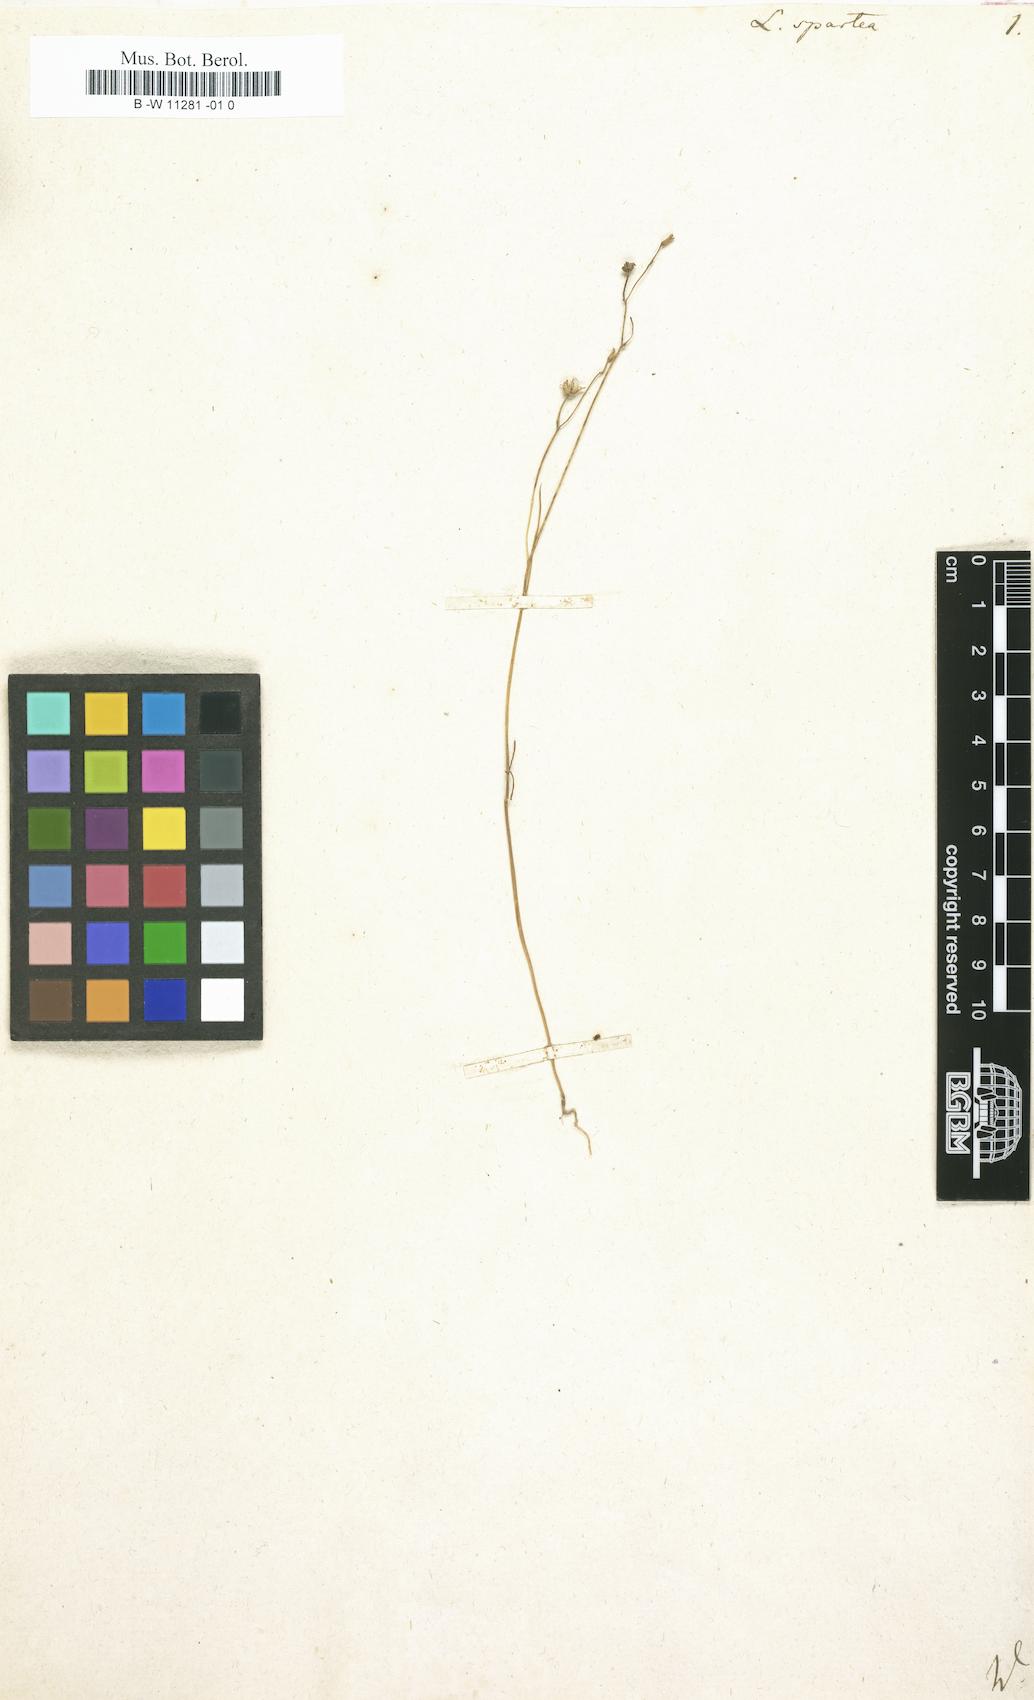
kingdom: Plantae
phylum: Tracheophyta
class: Magnoliopsida
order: Lamiales
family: Plantaginaceae
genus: Linaria
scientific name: Linaria spartea
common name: Ballast toadflax
